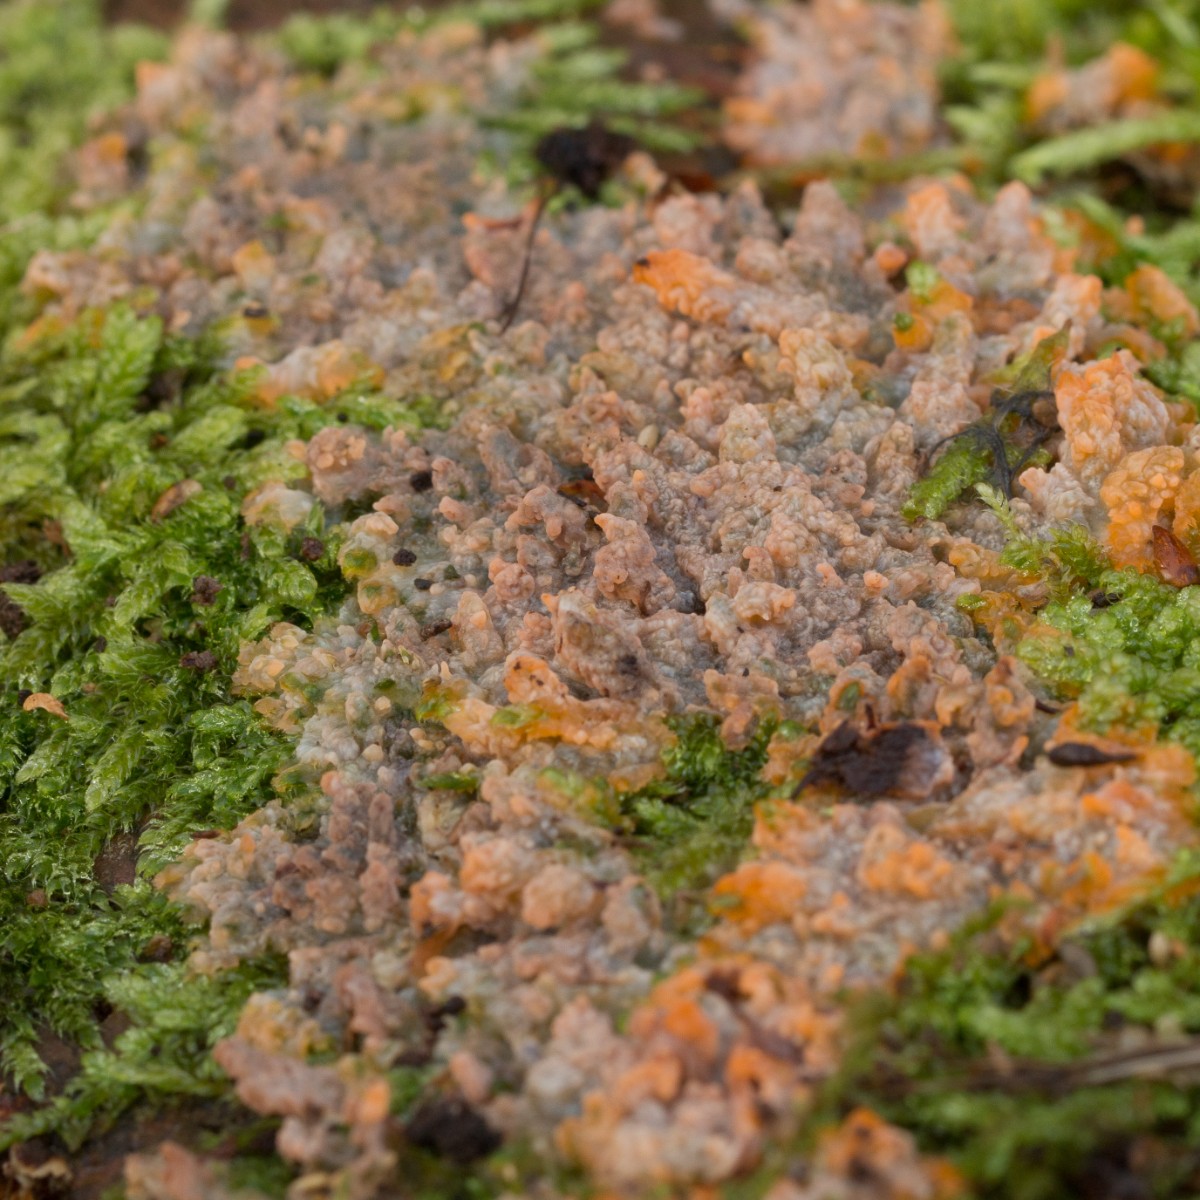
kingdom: Fungi
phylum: Basidiomycota
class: Agaricomycetes
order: Polyporales
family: Meruliaceae
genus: Phlebia
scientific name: Phlebia radiata
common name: stråle-åresvamp
